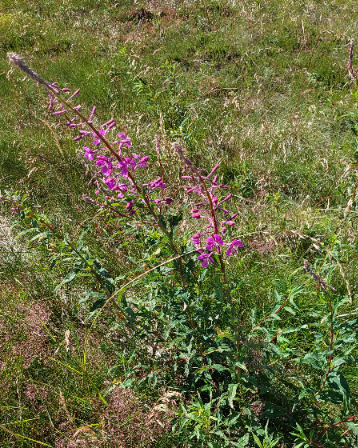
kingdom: Plantae
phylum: Tracheophyta
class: Magnoliopsida
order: Myrtales
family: Onagraceae
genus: Chamaenerion
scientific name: Chamaenerion angustifolium
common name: Gederams
